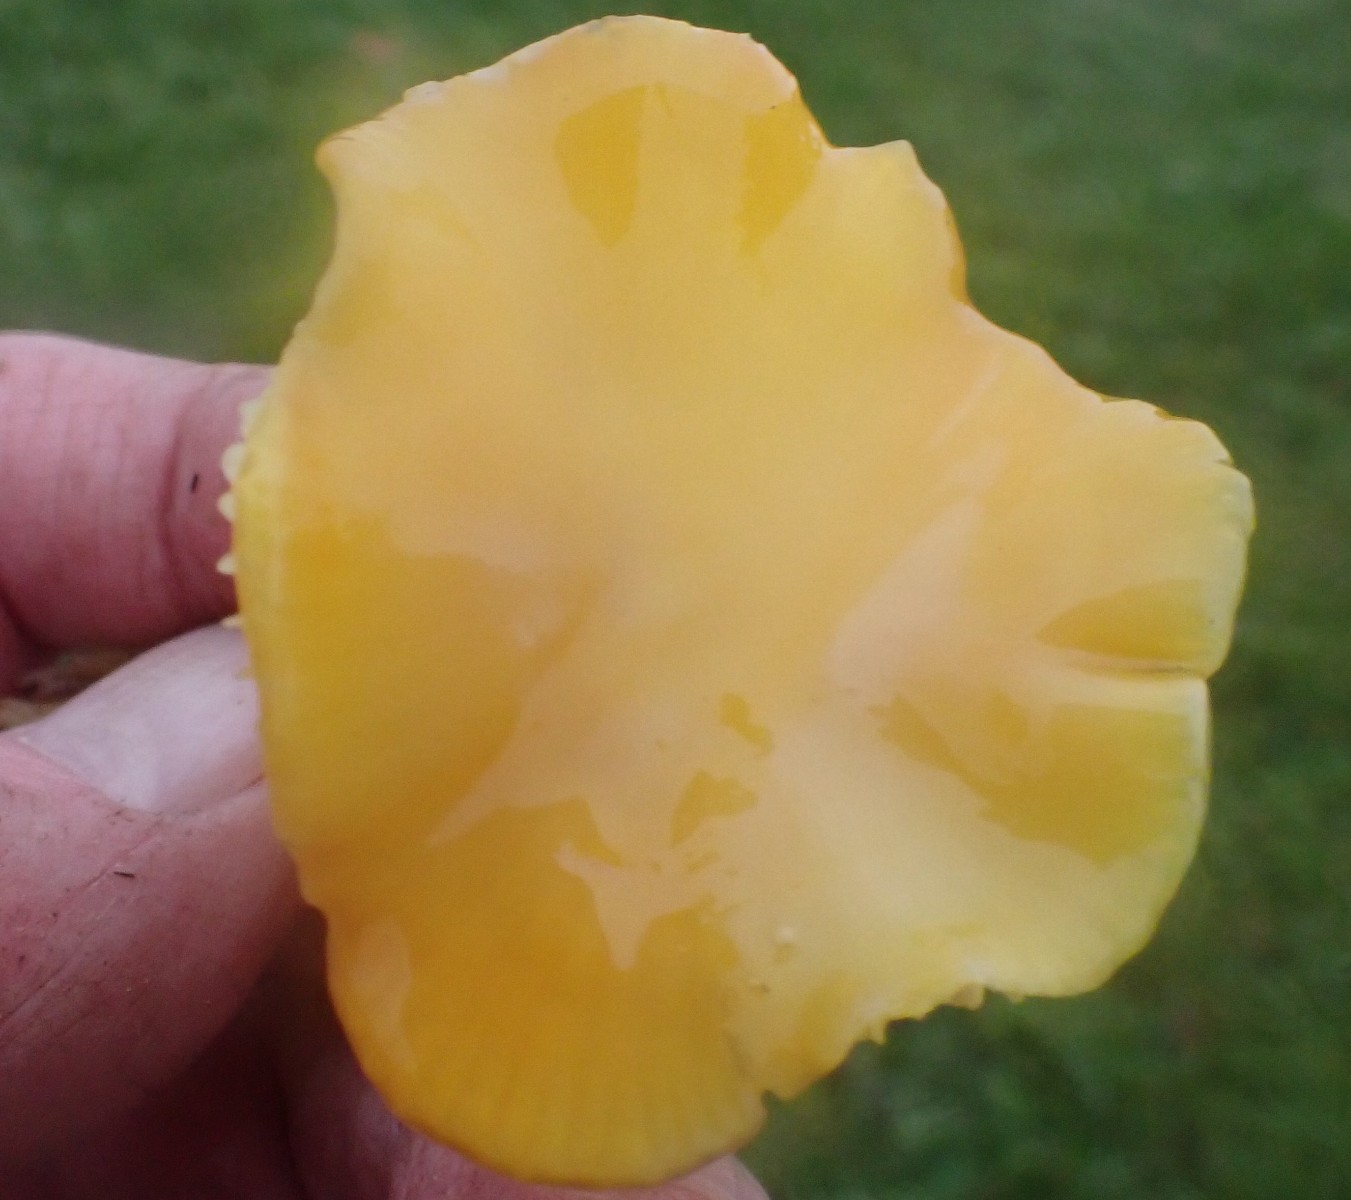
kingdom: Fungi
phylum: Basidiomycota
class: Agaricomycetes
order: Agaricales
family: Hygrophoraceae
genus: Hygrocybe
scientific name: Hygrocybe chlorophana
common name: gul vokshat
